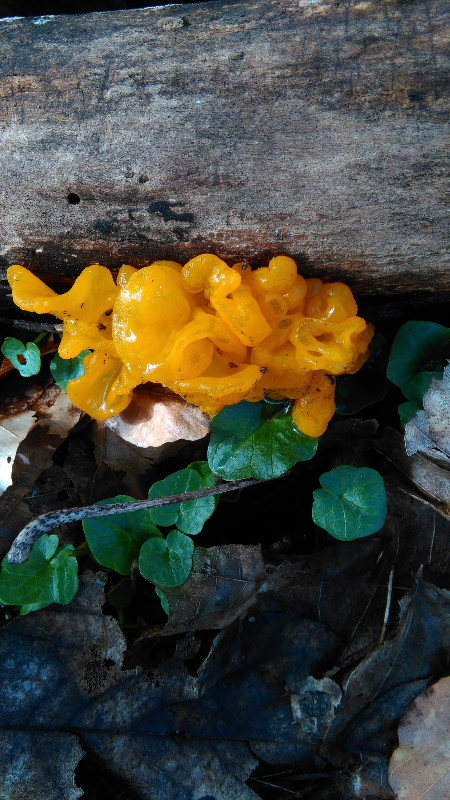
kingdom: Fungi
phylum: Basidiomycota
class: Tremellomycetes
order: Tremellales
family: Tremellaceae
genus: Tremella
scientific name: Tremella mesenterica
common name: gul bævresvamp
